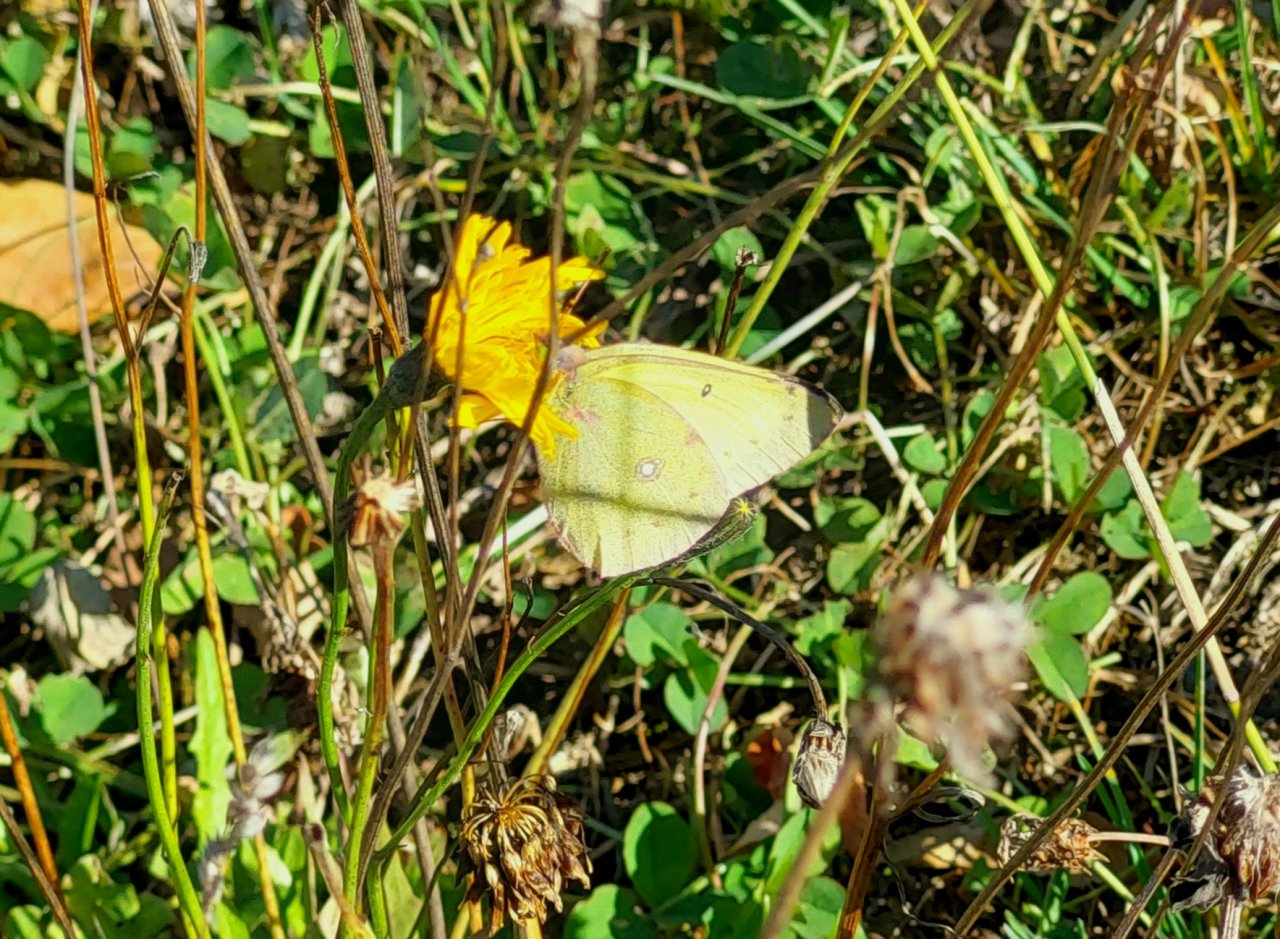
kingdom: Animalia
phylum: Arthropoda
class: Insecta
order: Lepidoptera
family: Pieridae
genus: Colias
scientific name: Colias philodice
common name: Clouded Sulphur
